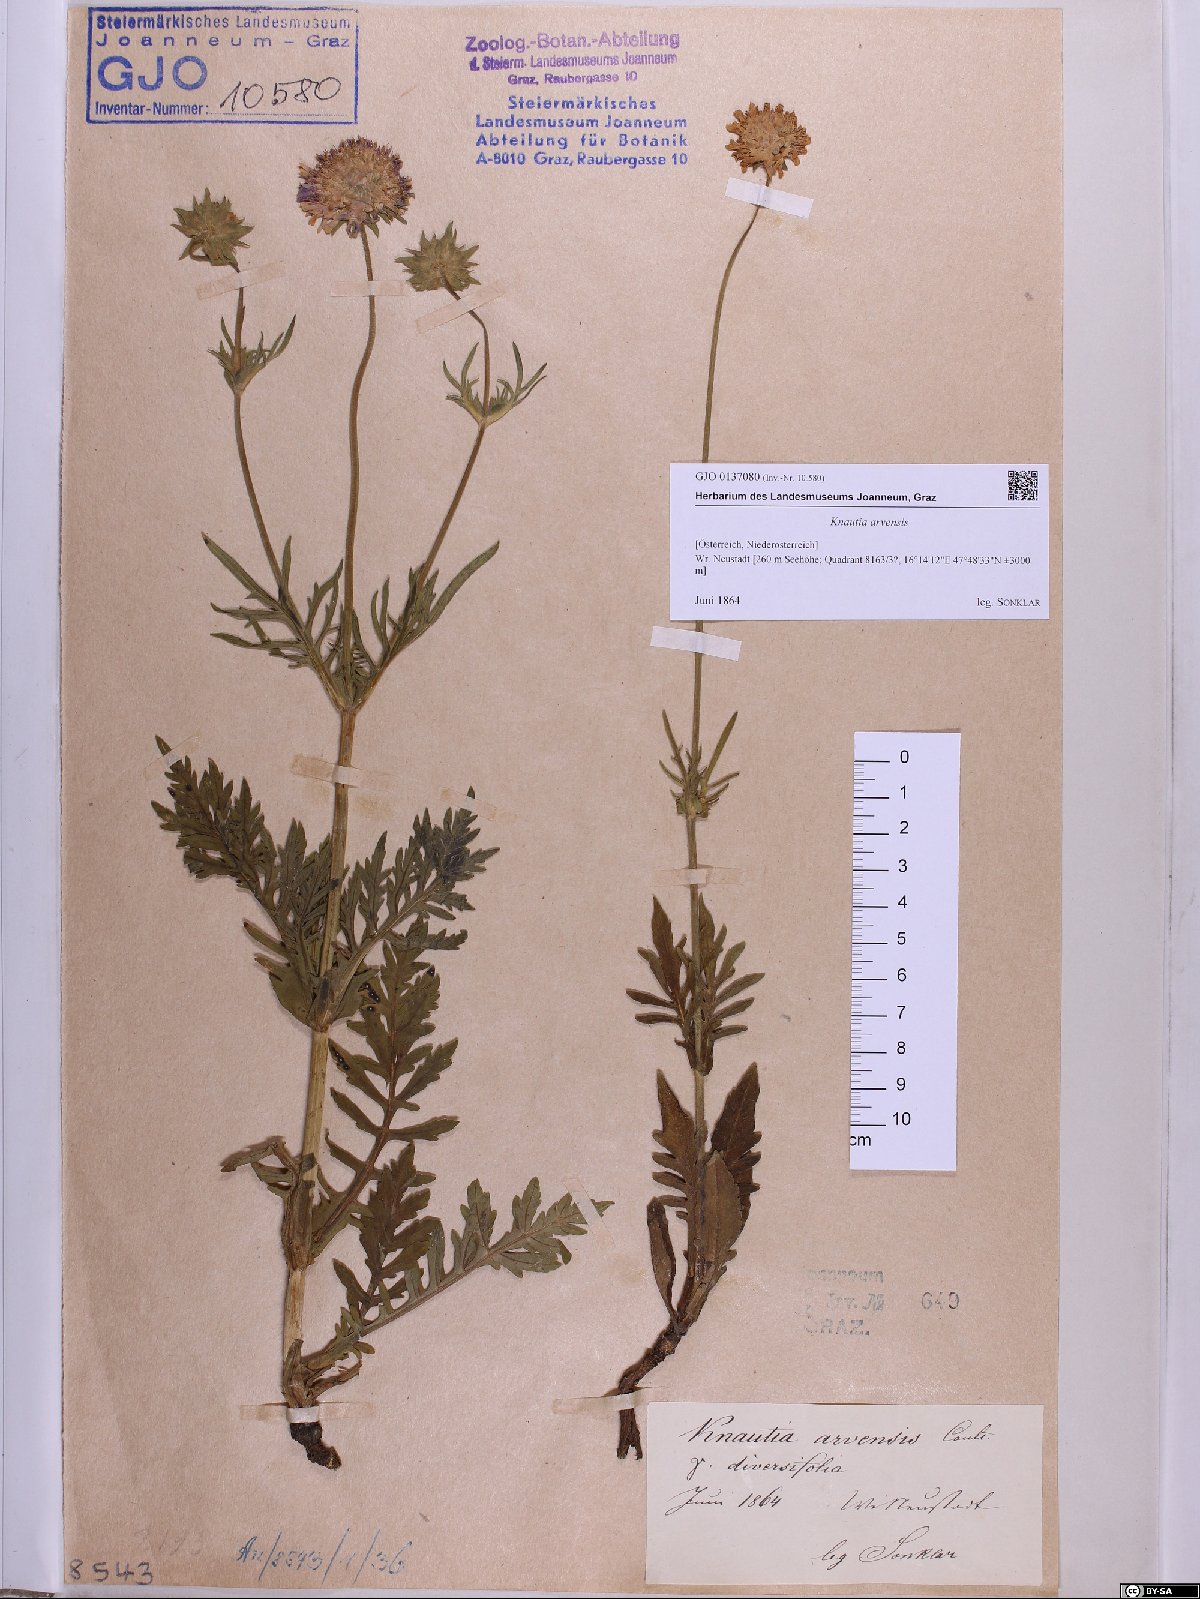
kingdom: Plantae
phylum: Tracheophyta
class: Magnoliopsida
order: Dipsacales
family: Caprifoliaceae
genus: Knautia
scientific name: Knautia arvensis
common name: Field scabiosa
